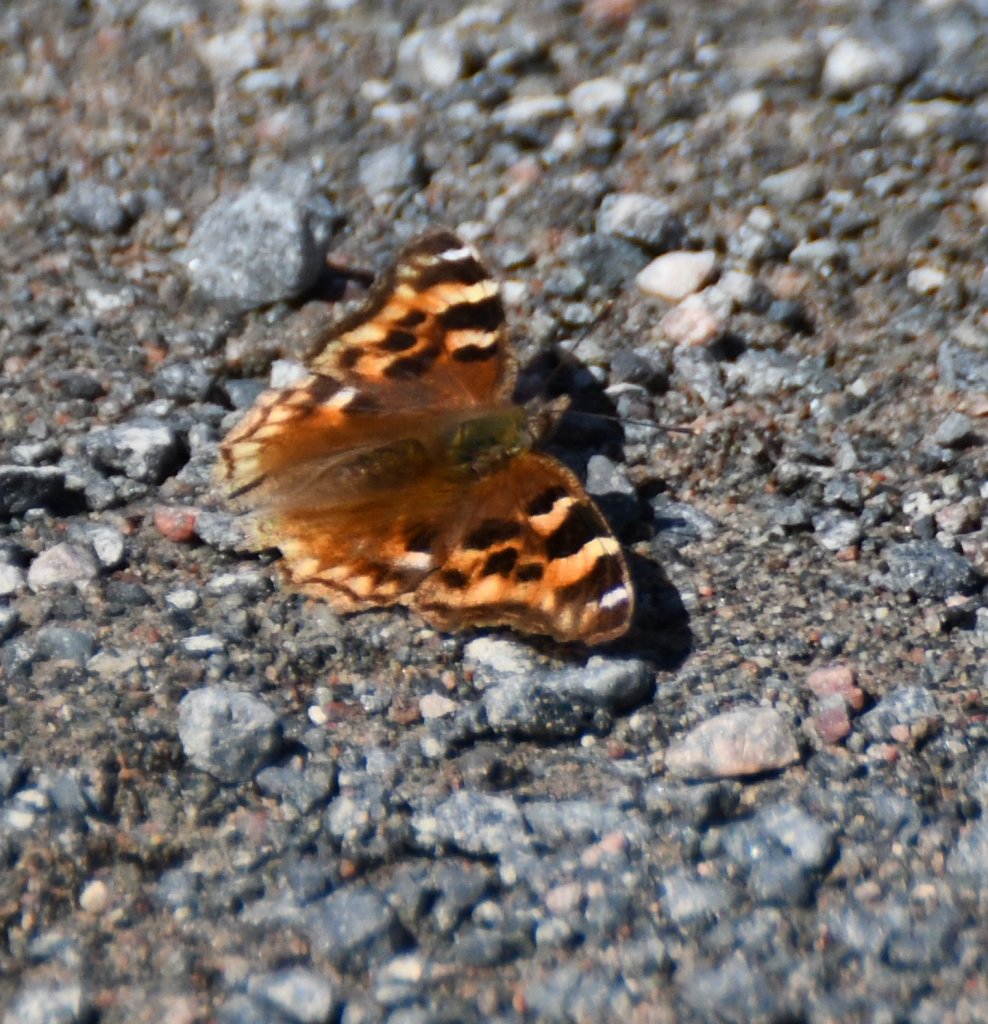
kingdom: Animalia
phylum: Arthropoda
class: Insecta
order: Lepidoptera
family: Nymphalidae
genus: Polygonia
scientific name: Polygonia vaualbum
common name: Compton Tortoiseshell
